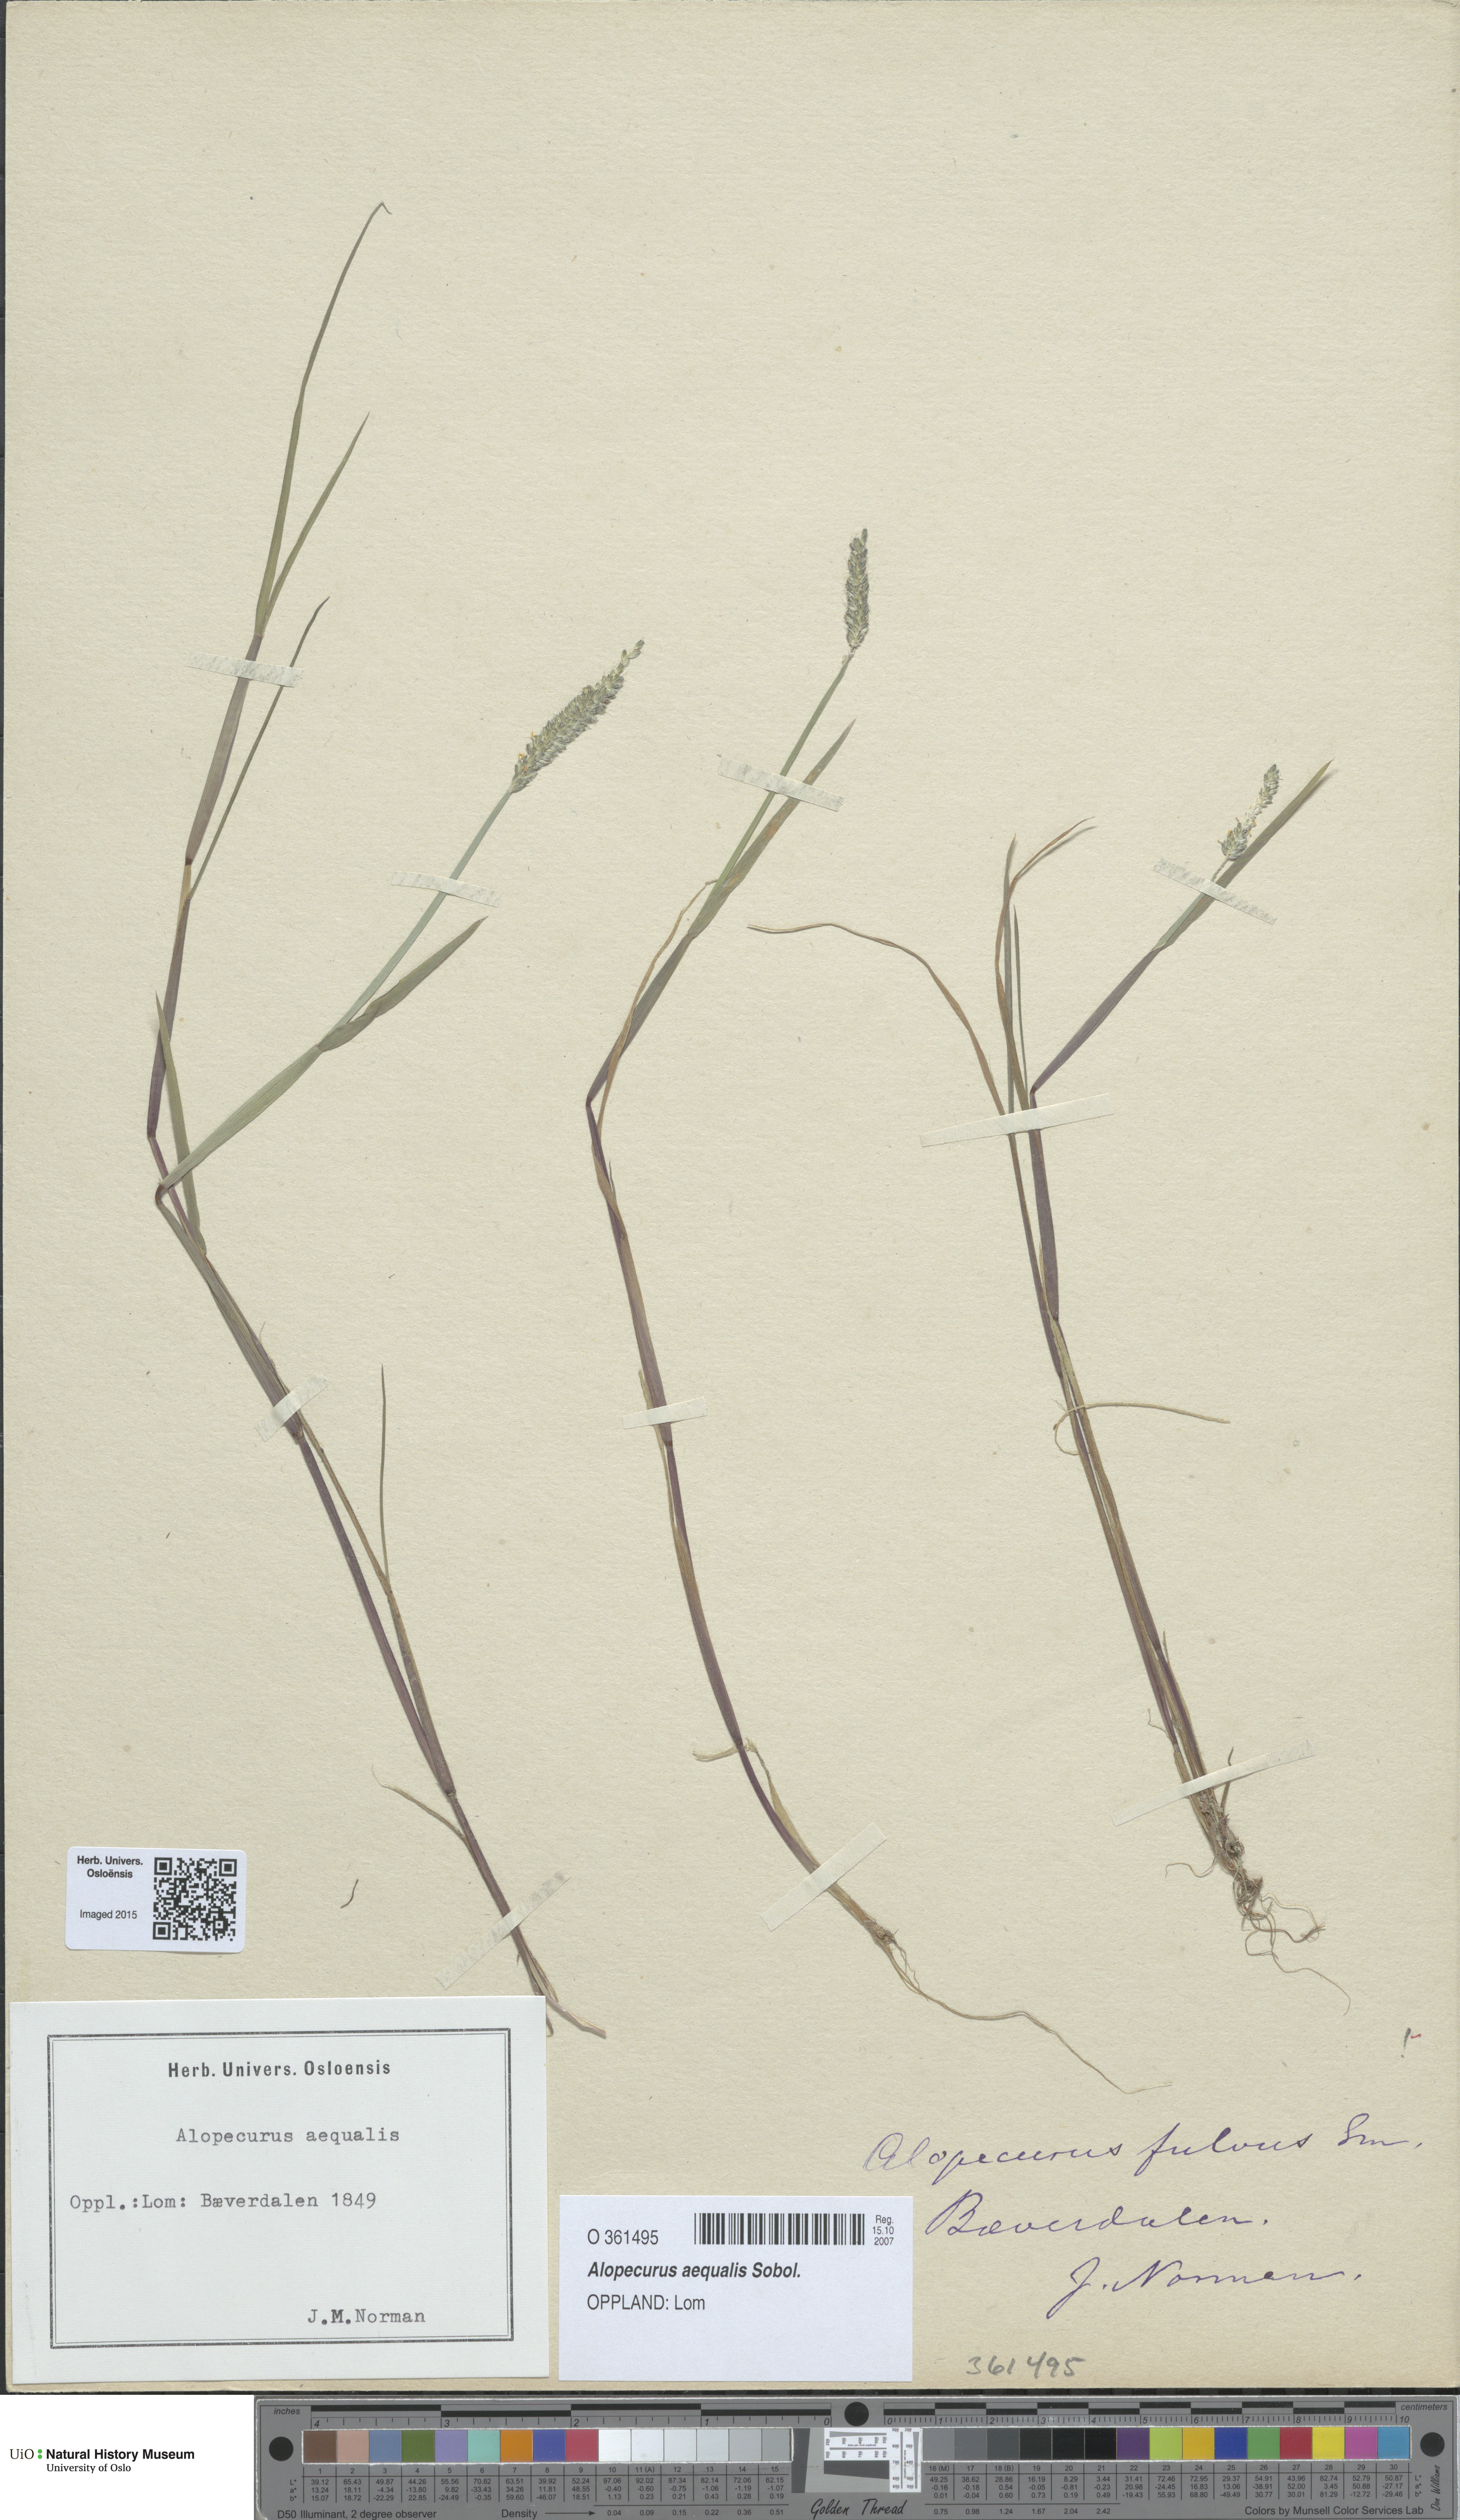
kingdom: Plantae
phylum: Tracheophyta
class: Liliopsida
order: Poales
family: Poaceae
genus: Alopecurus
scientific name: Alopecurus aequalis
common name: Orange foxtail
